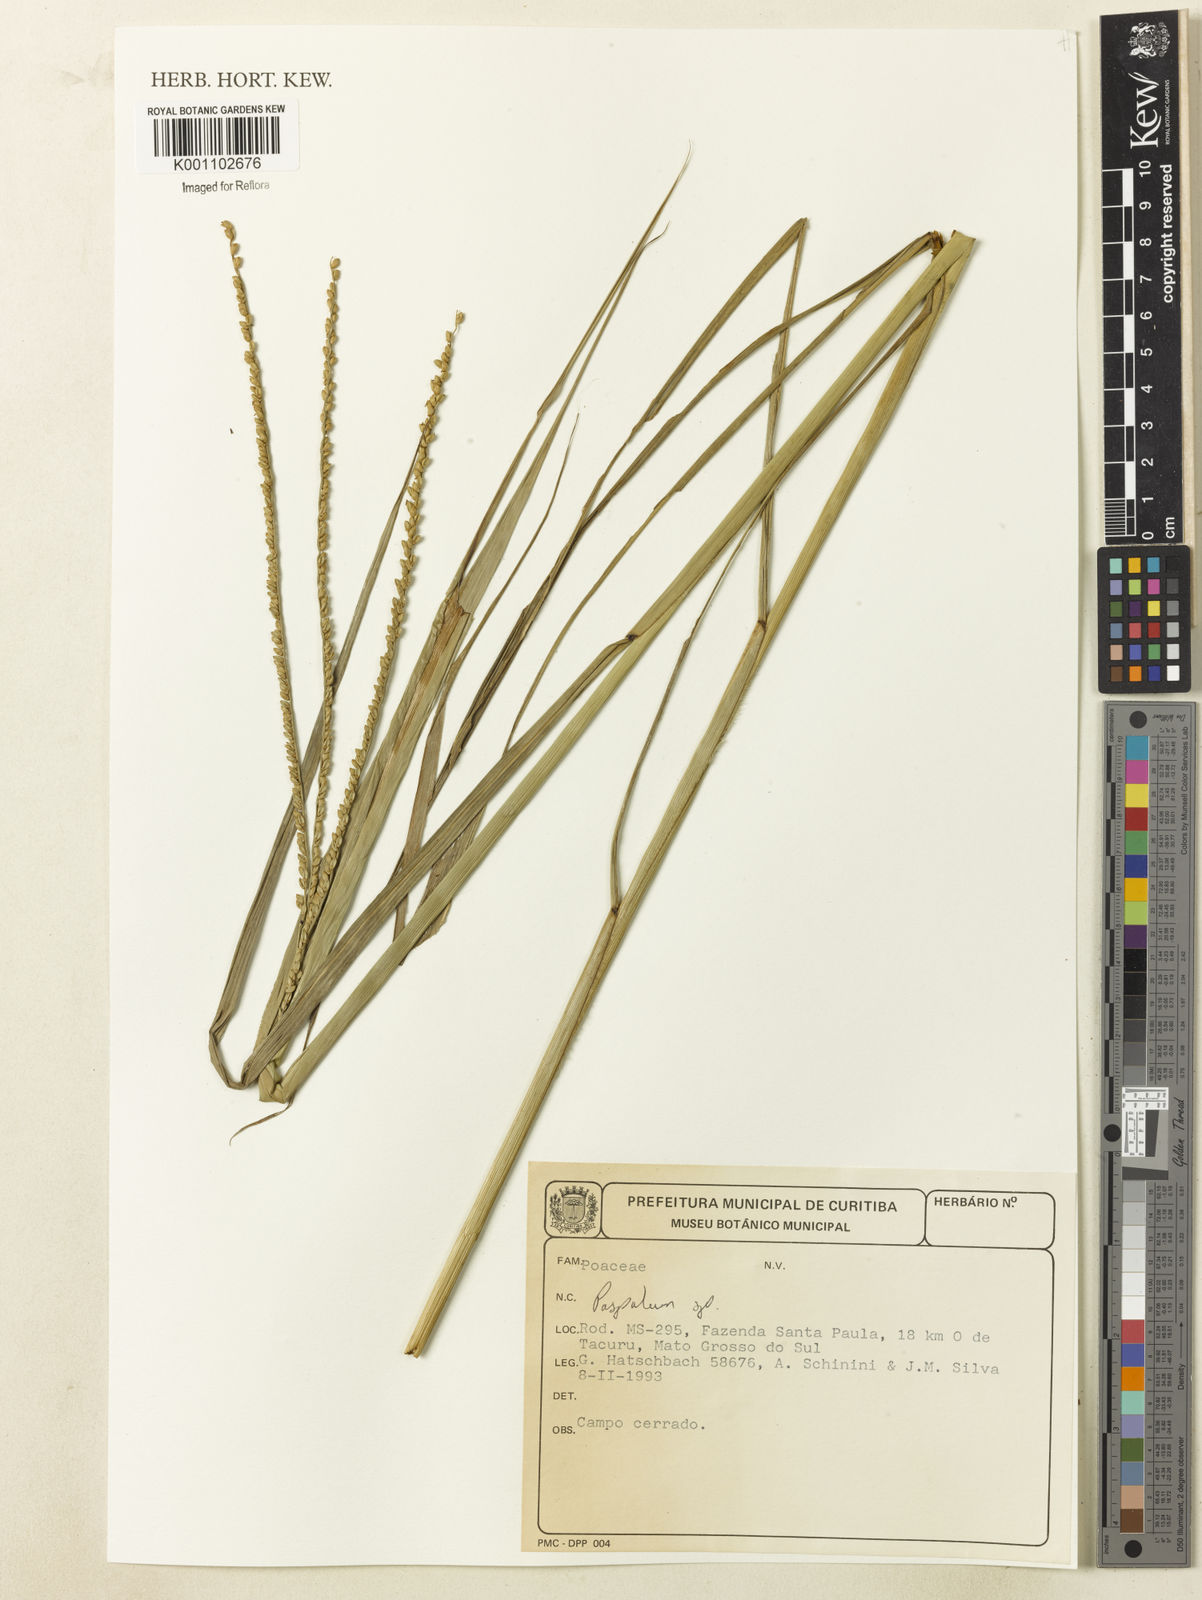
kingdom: Plantae
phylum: Tracheophyta
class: Liliopsida
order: Poales
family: Poaceae
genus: Paspalum
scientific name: Paspalum
